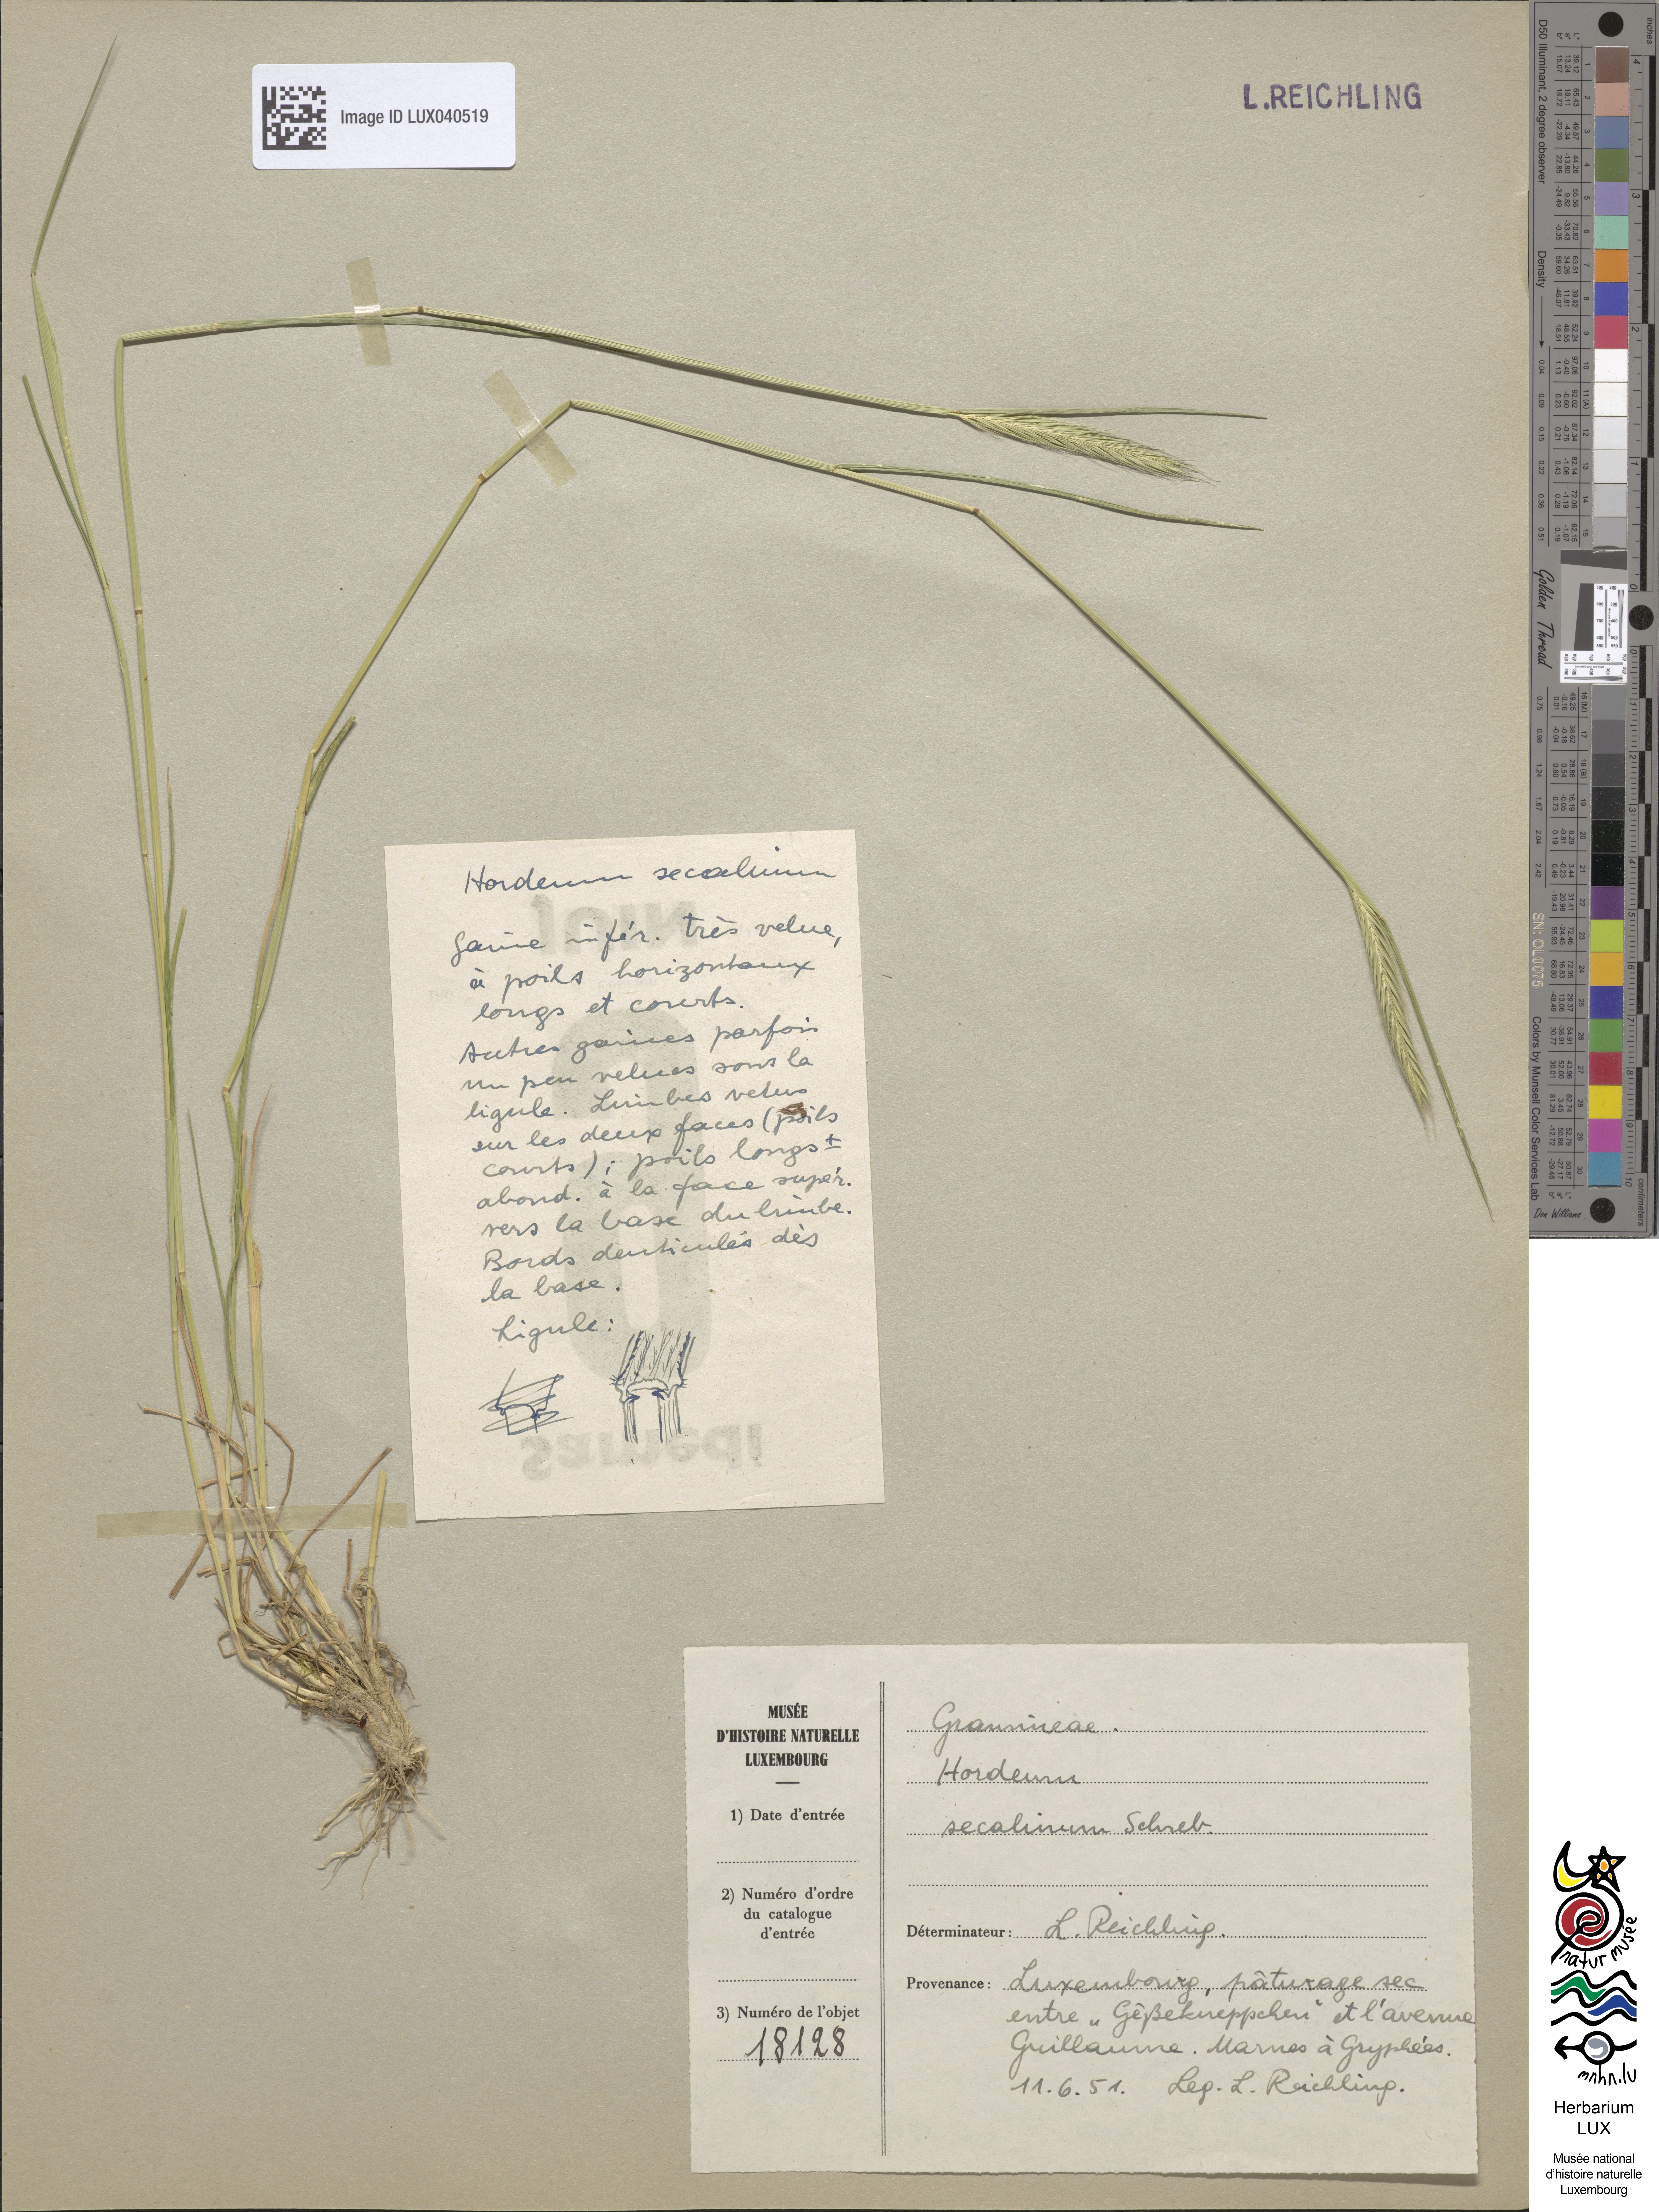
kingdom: Plantae
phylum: Tracheophyta
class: Liliopsida
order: Poales
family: Poaceae
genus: Hordeum
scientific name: Hordeum secalinum
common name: Meadow barley
